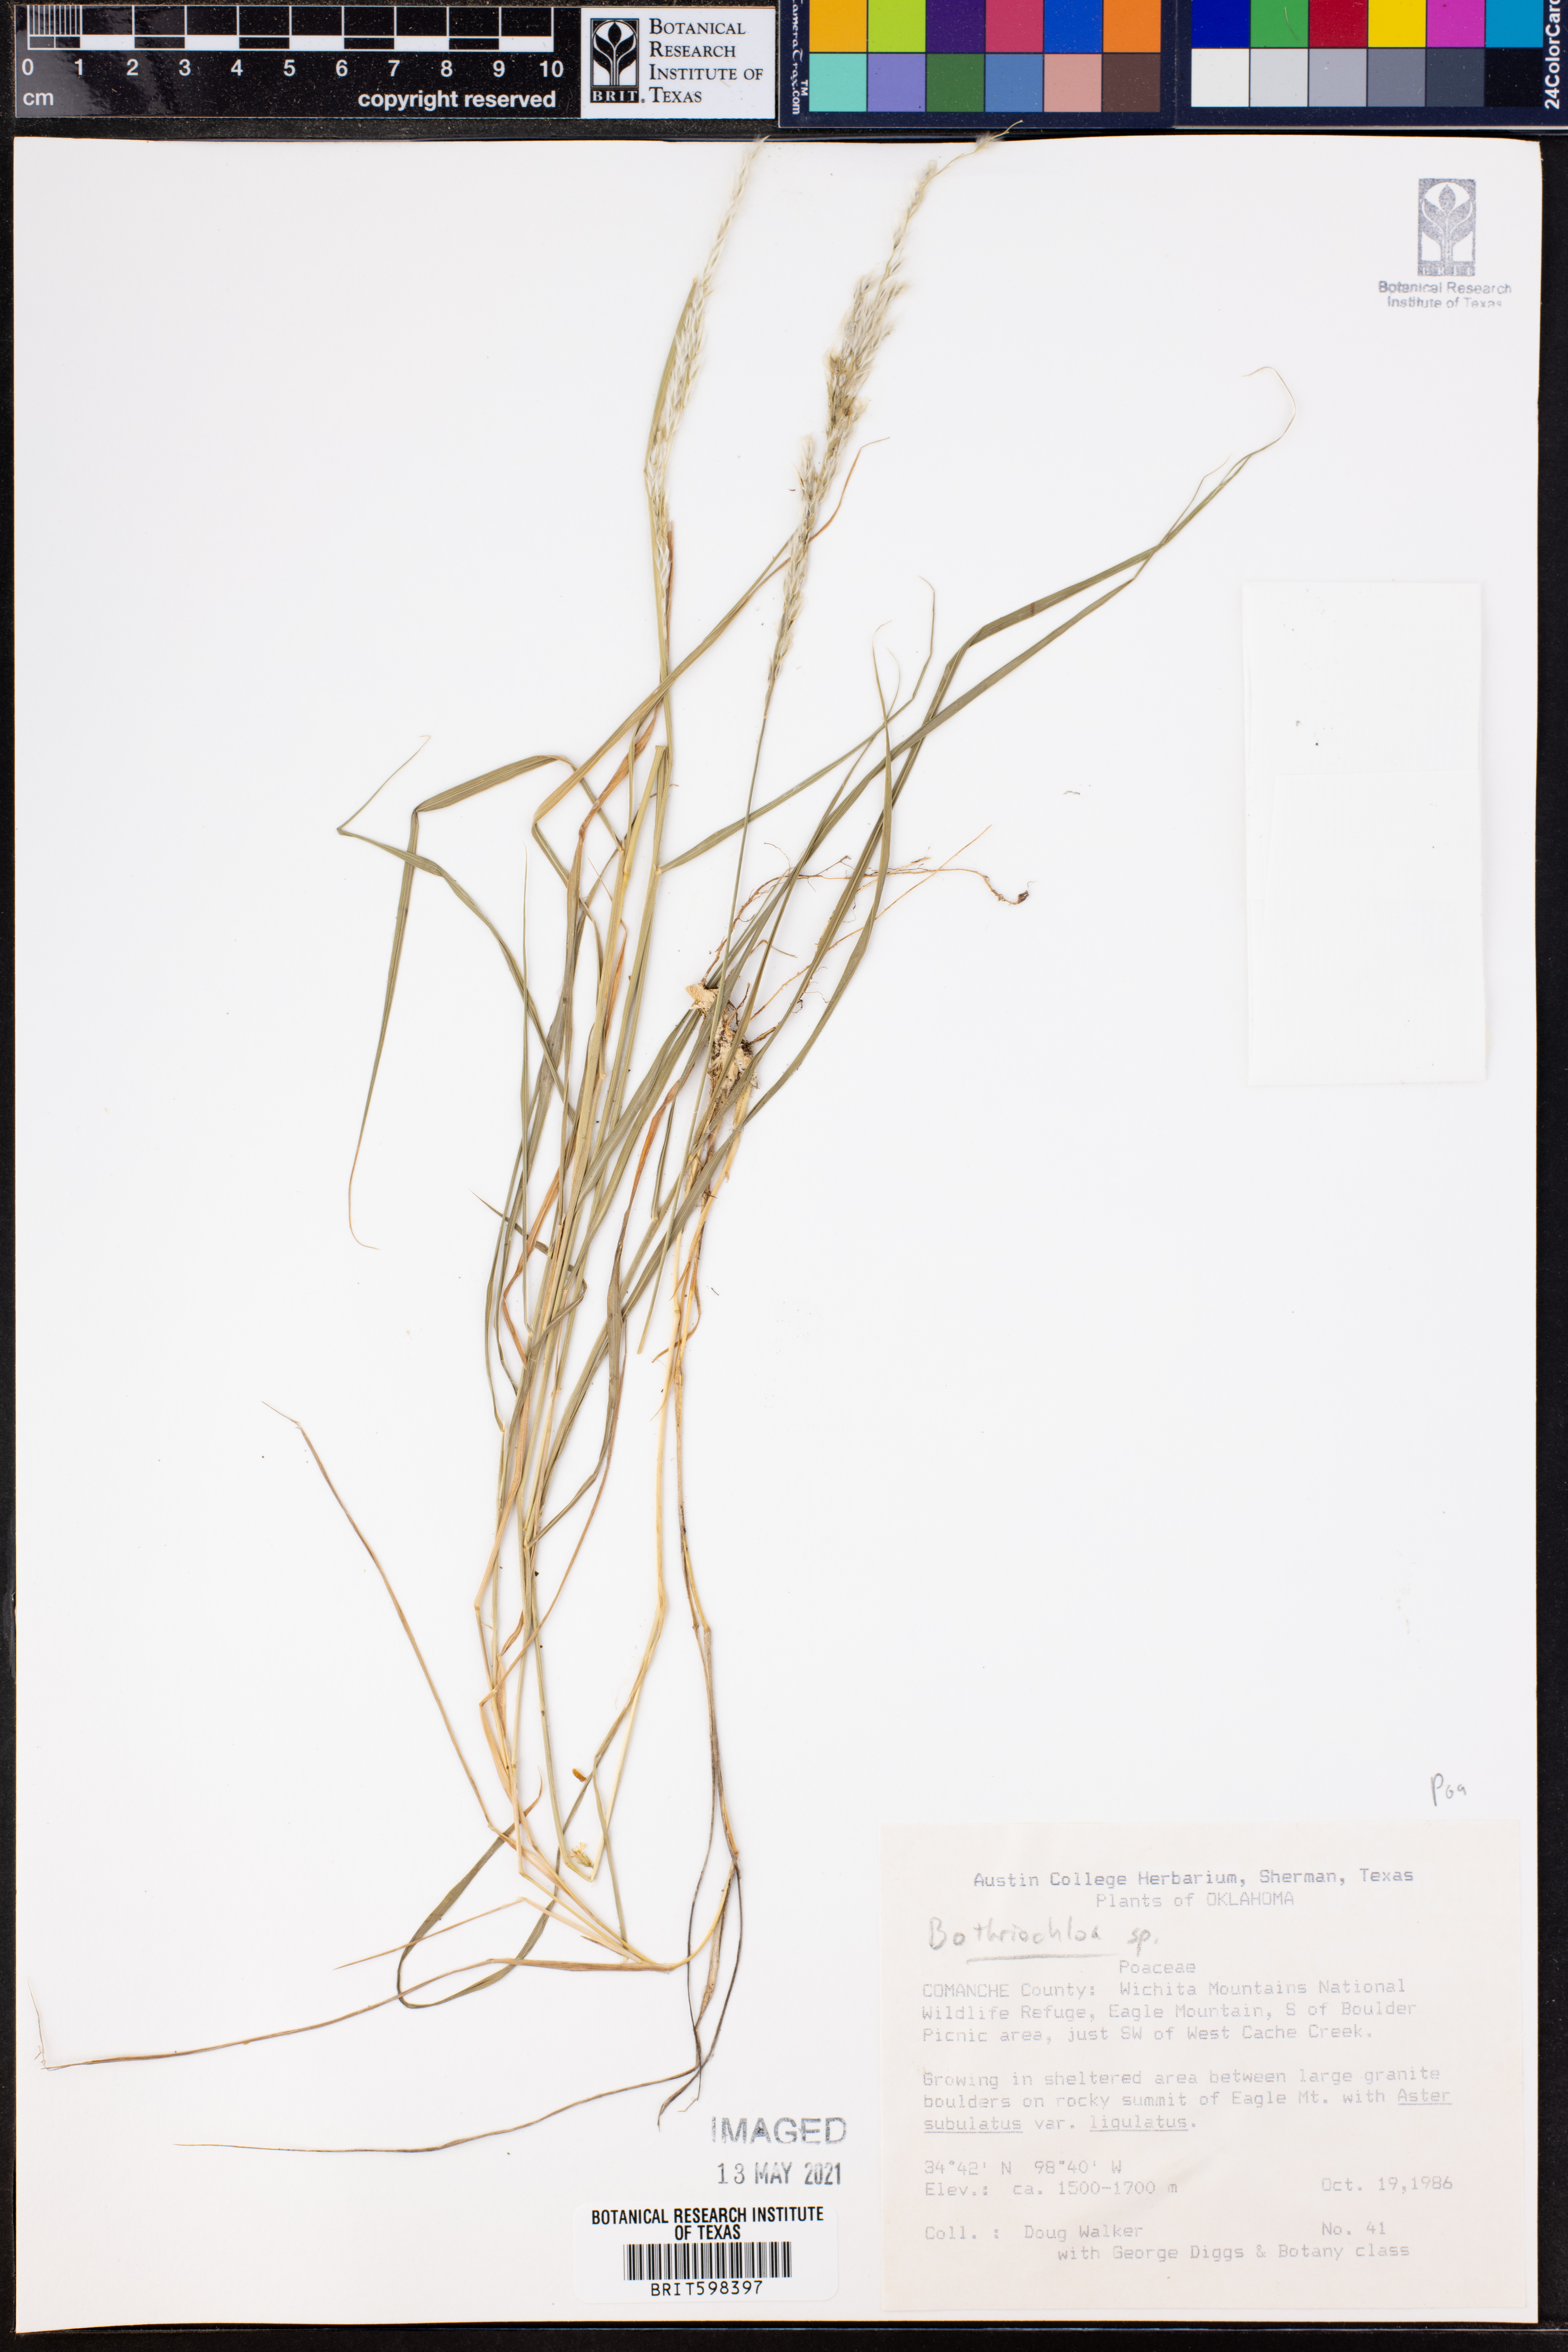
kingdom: Plantae
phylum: Tracheophyta
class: Liliopsida
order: Poales
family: Poaceae
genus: Bothriochloa
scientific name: Bothriochloa
